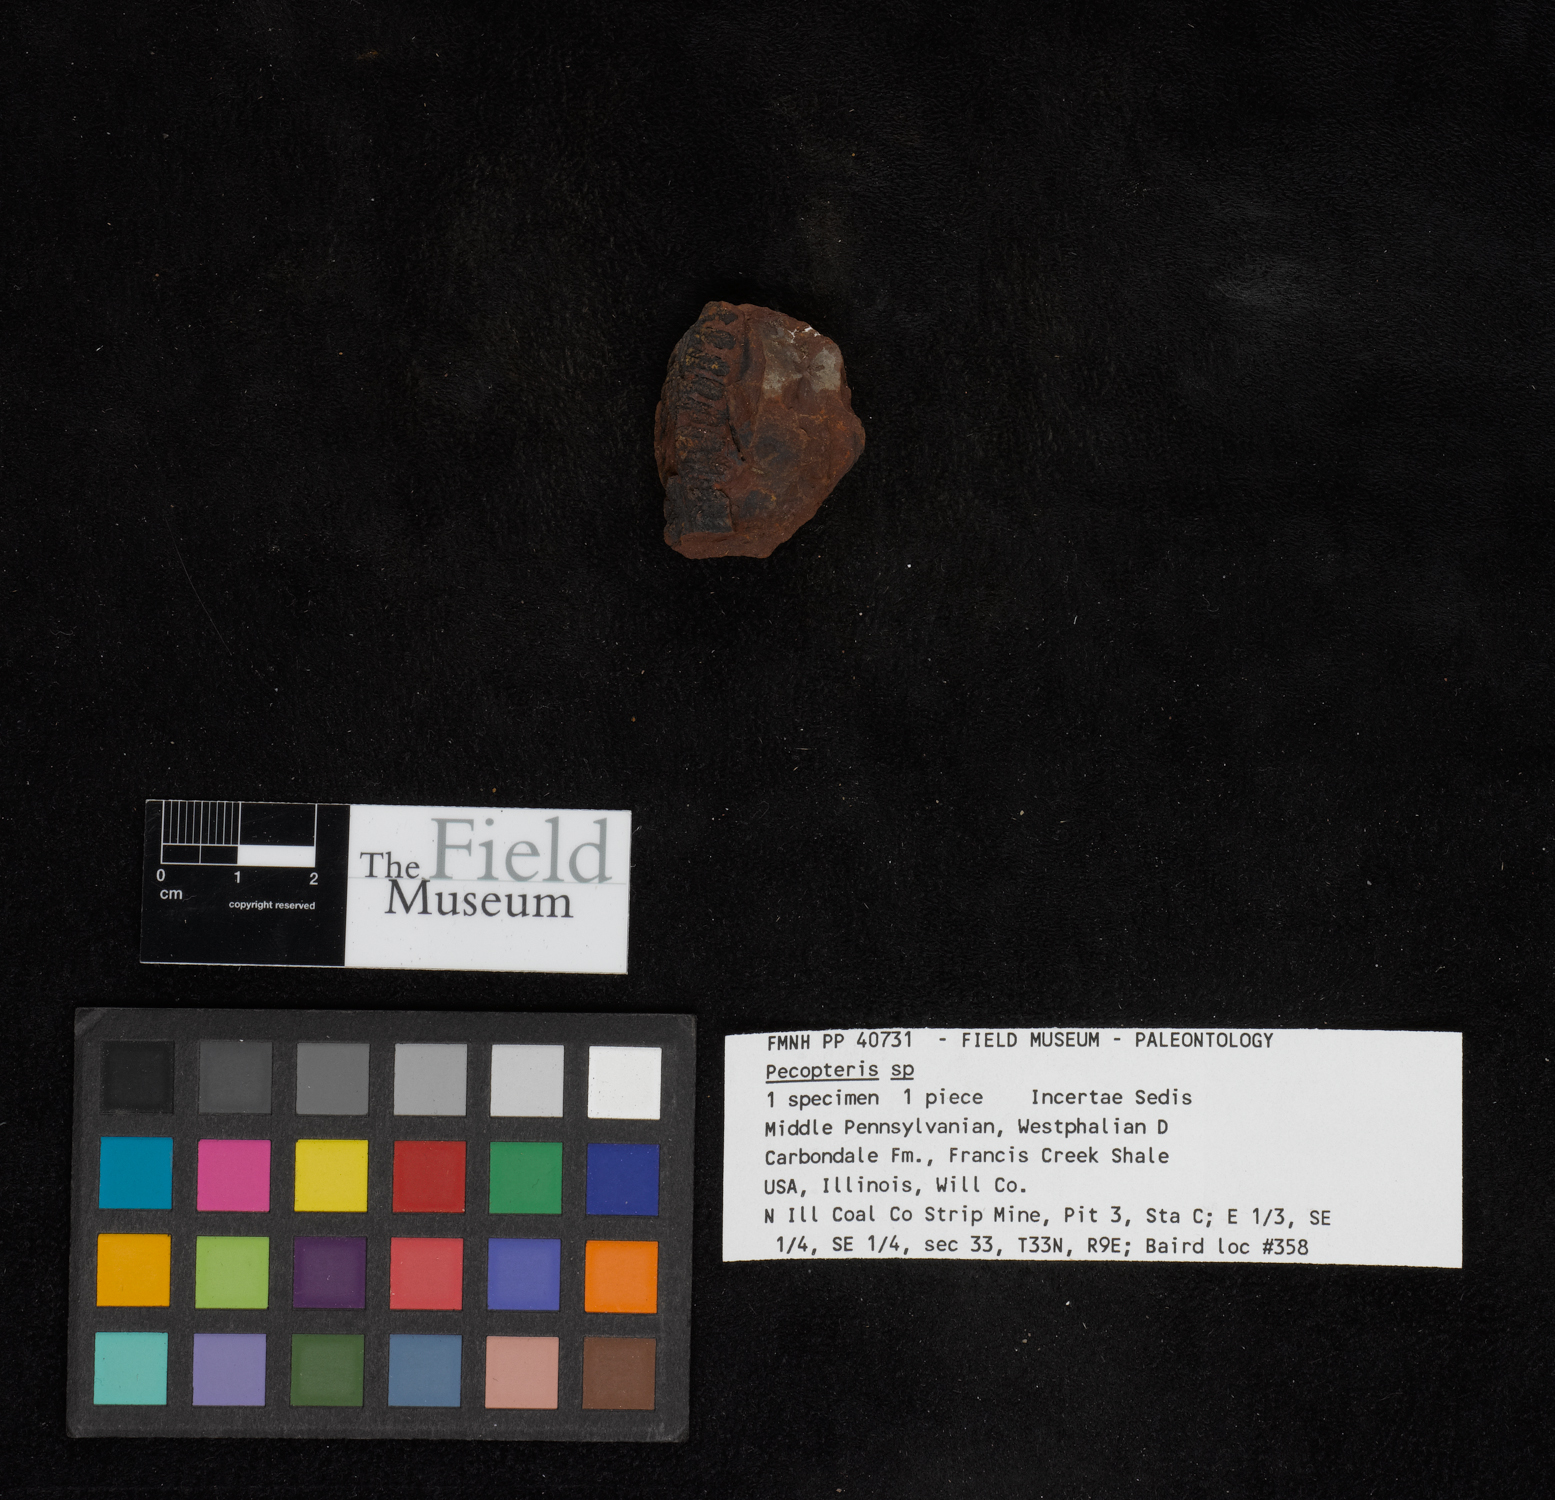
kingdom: Plantae
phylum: Tracheophyta
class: Polypodiopsida
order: Marattiales
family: Asterothecaceae
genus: Pecopteris
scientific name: Pecopteris
